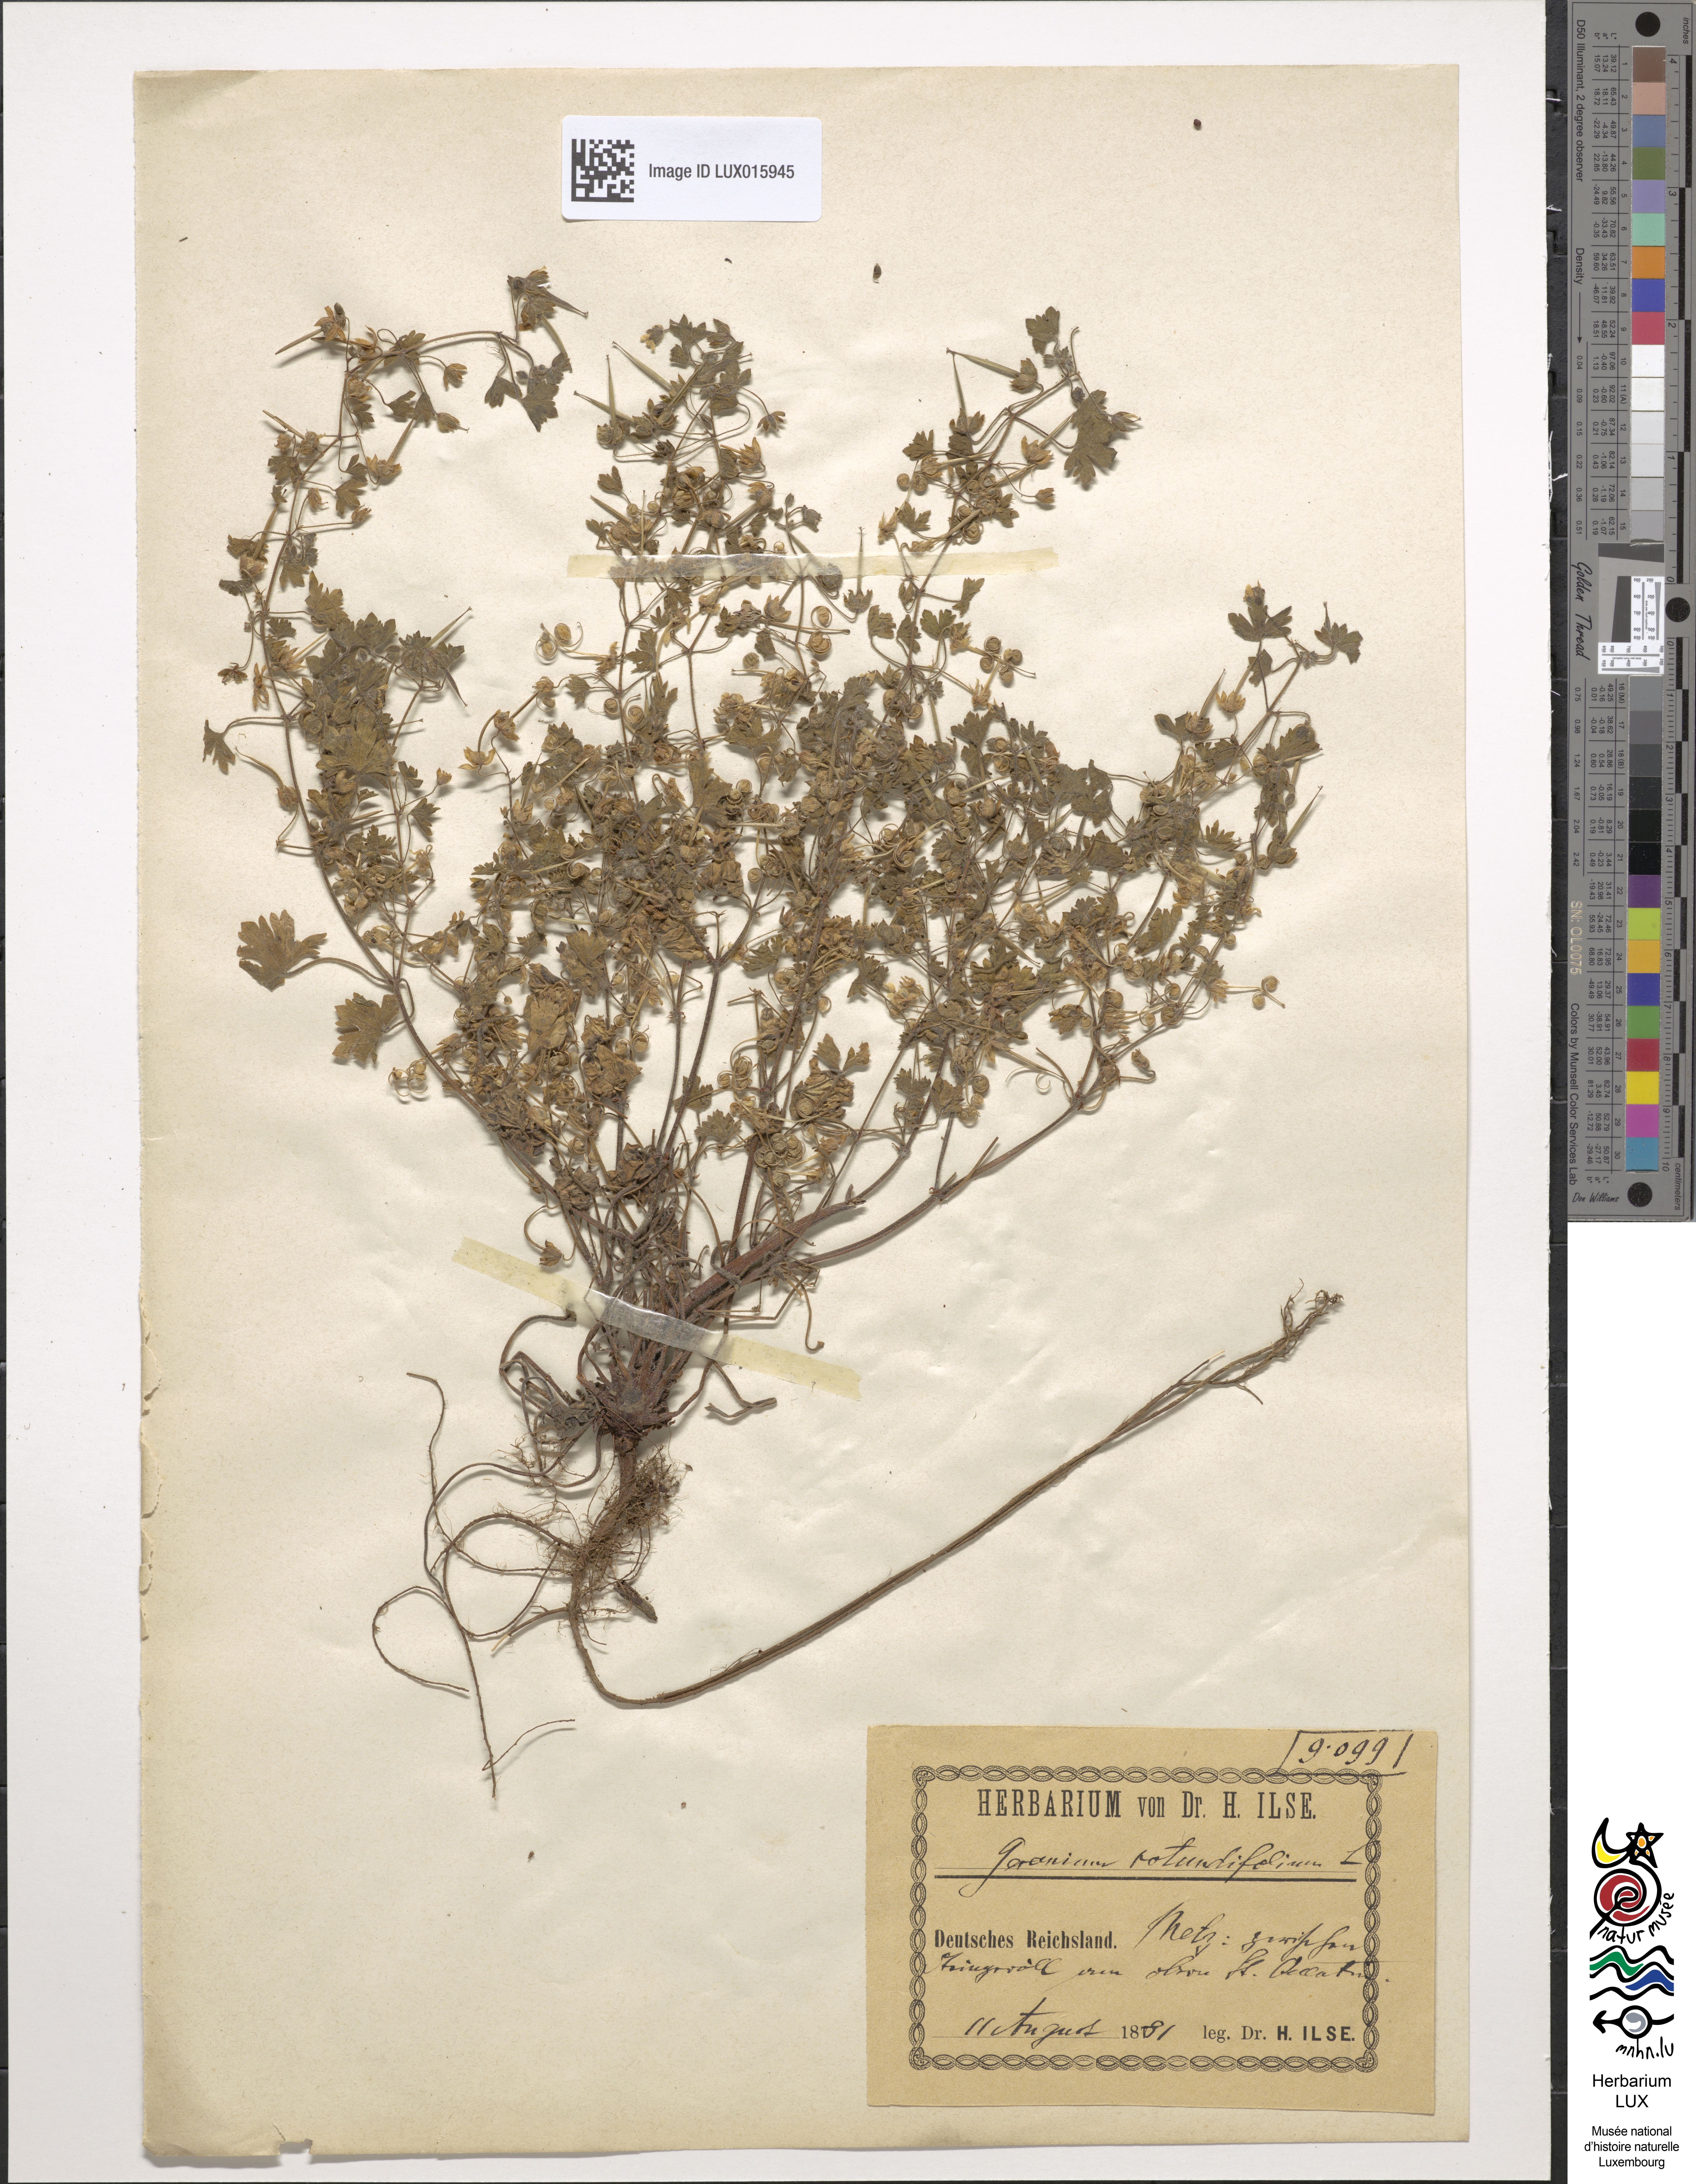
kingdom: Plantae
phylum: Tracheophyta
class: Magnoliopsida
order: Geraniales
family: Geraniaceae
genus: Geranium
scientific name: Geranium rotundifolium
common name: Round-leaved crane's-bill
